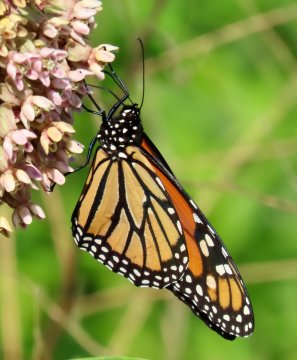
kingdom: Animalia
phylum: Arthropoda
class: Insecta
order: Lepidoptera
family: Nymphalidae
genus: Danaus
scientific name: Danaus plexippus
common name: Monarch
